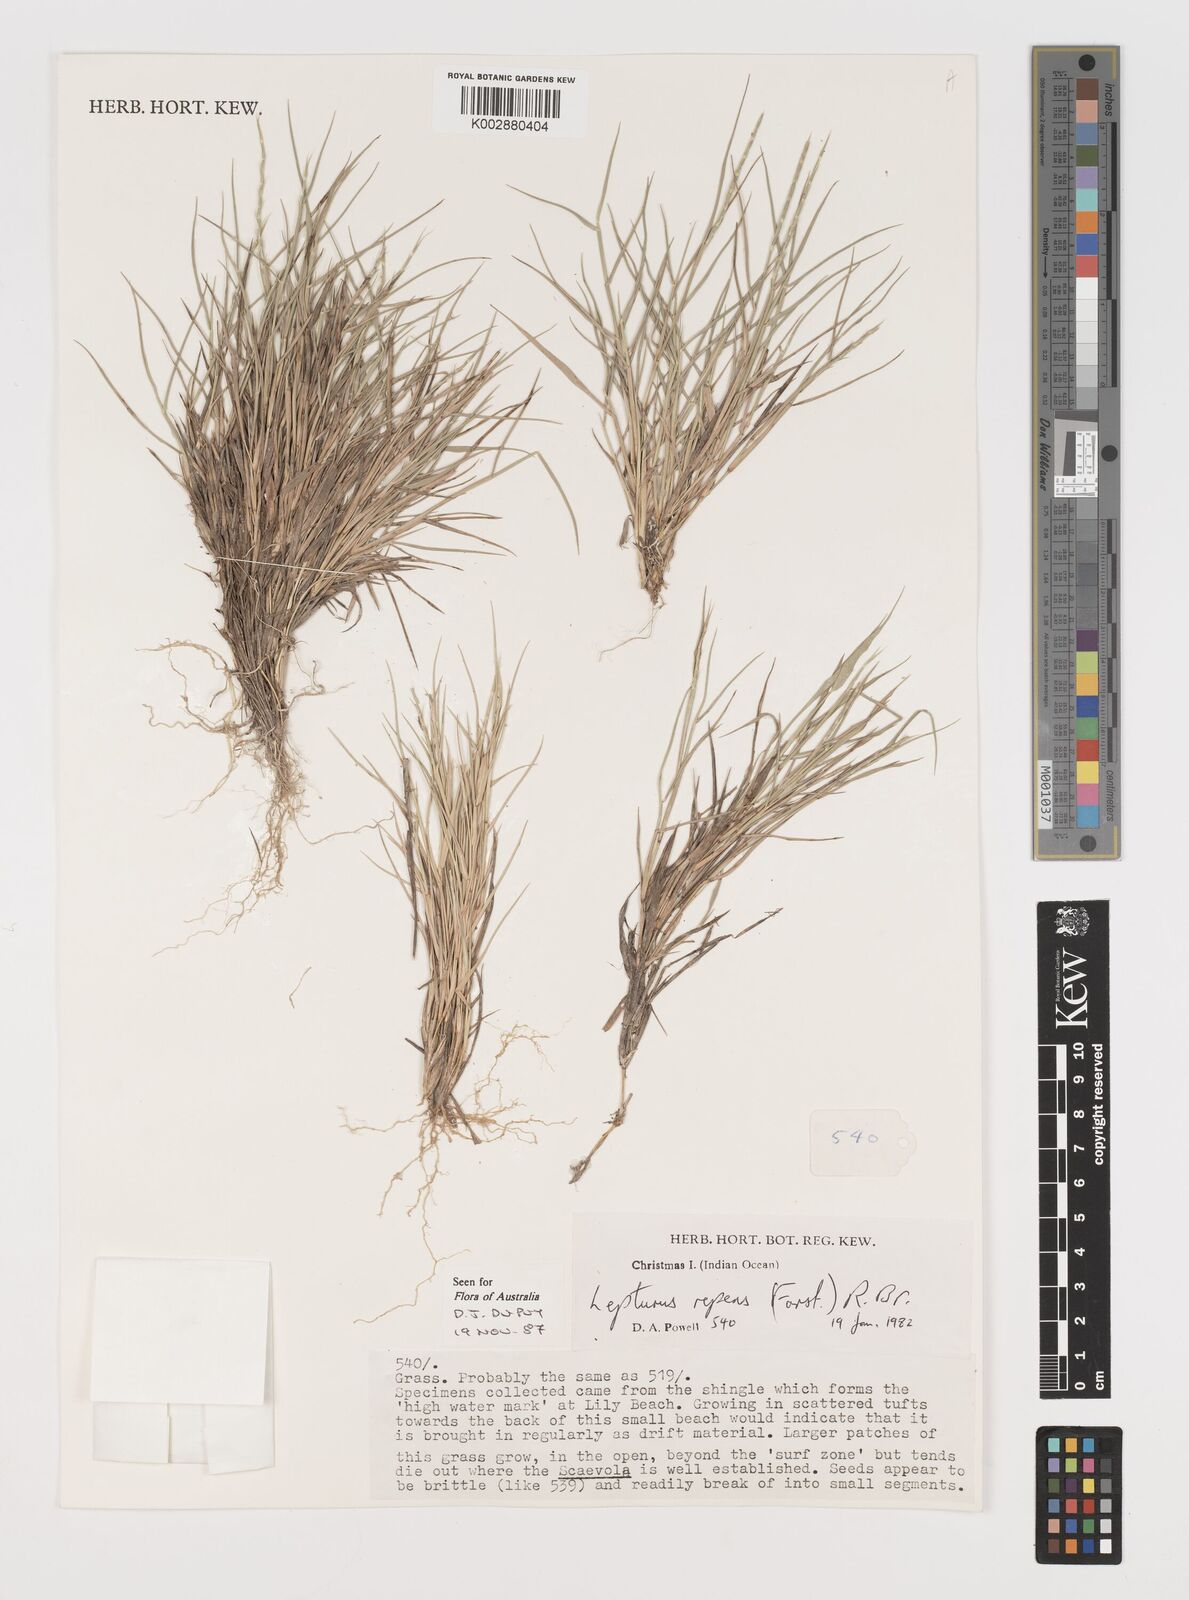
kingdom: Plantae
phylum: Tracheophyta
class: Liliopsida
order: Poales
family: Poaceae
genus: Lepturus
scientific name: Lepturus repens
